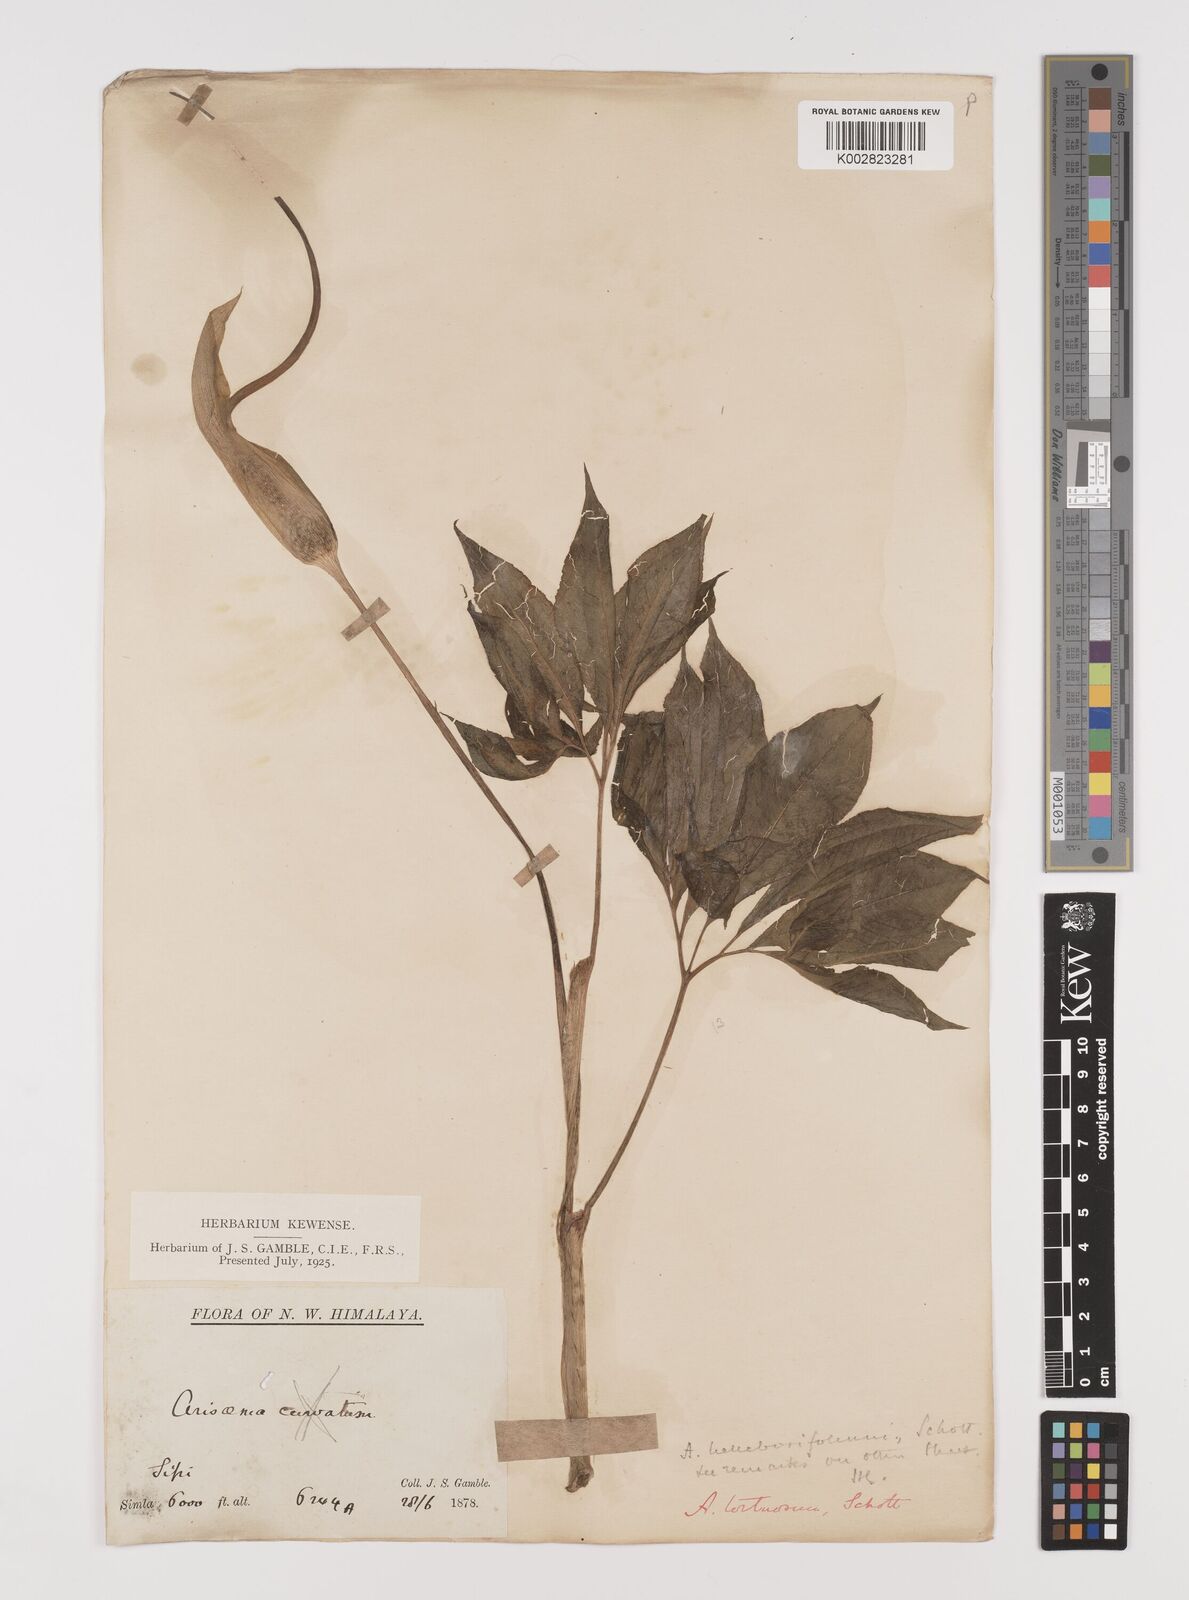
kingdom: Plantae
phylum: Tracheophyta
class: Liliopsida
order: Alismatales
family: Araceae
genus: Arisaema
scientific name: Arisaema tortuosum
